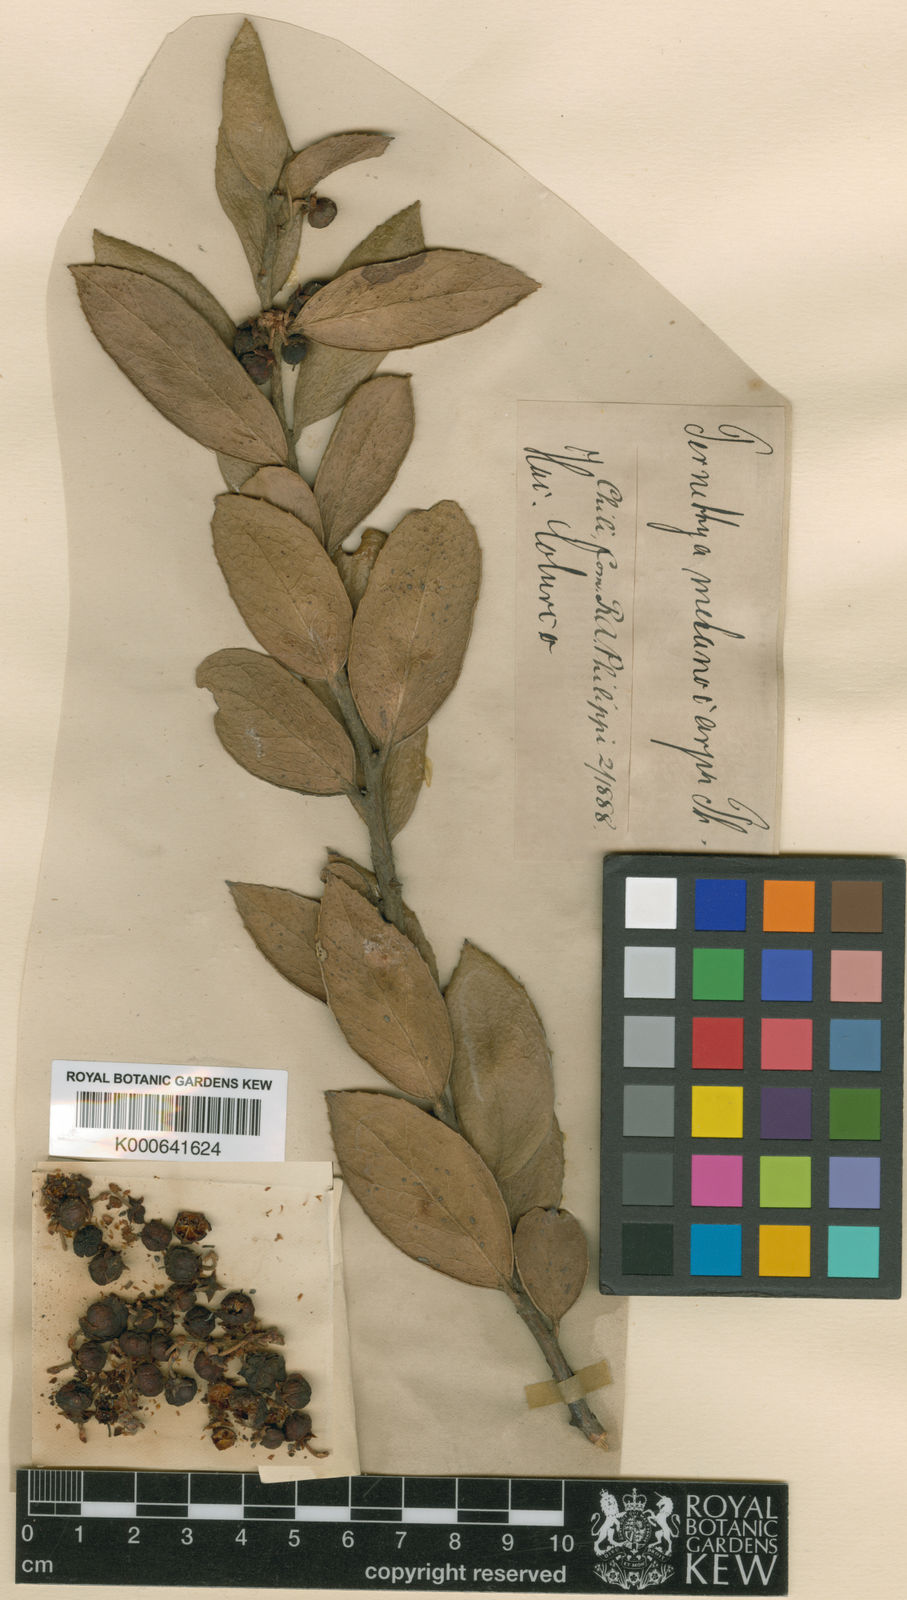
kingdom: Plantae
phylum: Tracheophyta
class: Magnoliopsida
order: Ericales
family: Ericaceae
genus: Gaultheria
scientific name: Gaultheria insana
